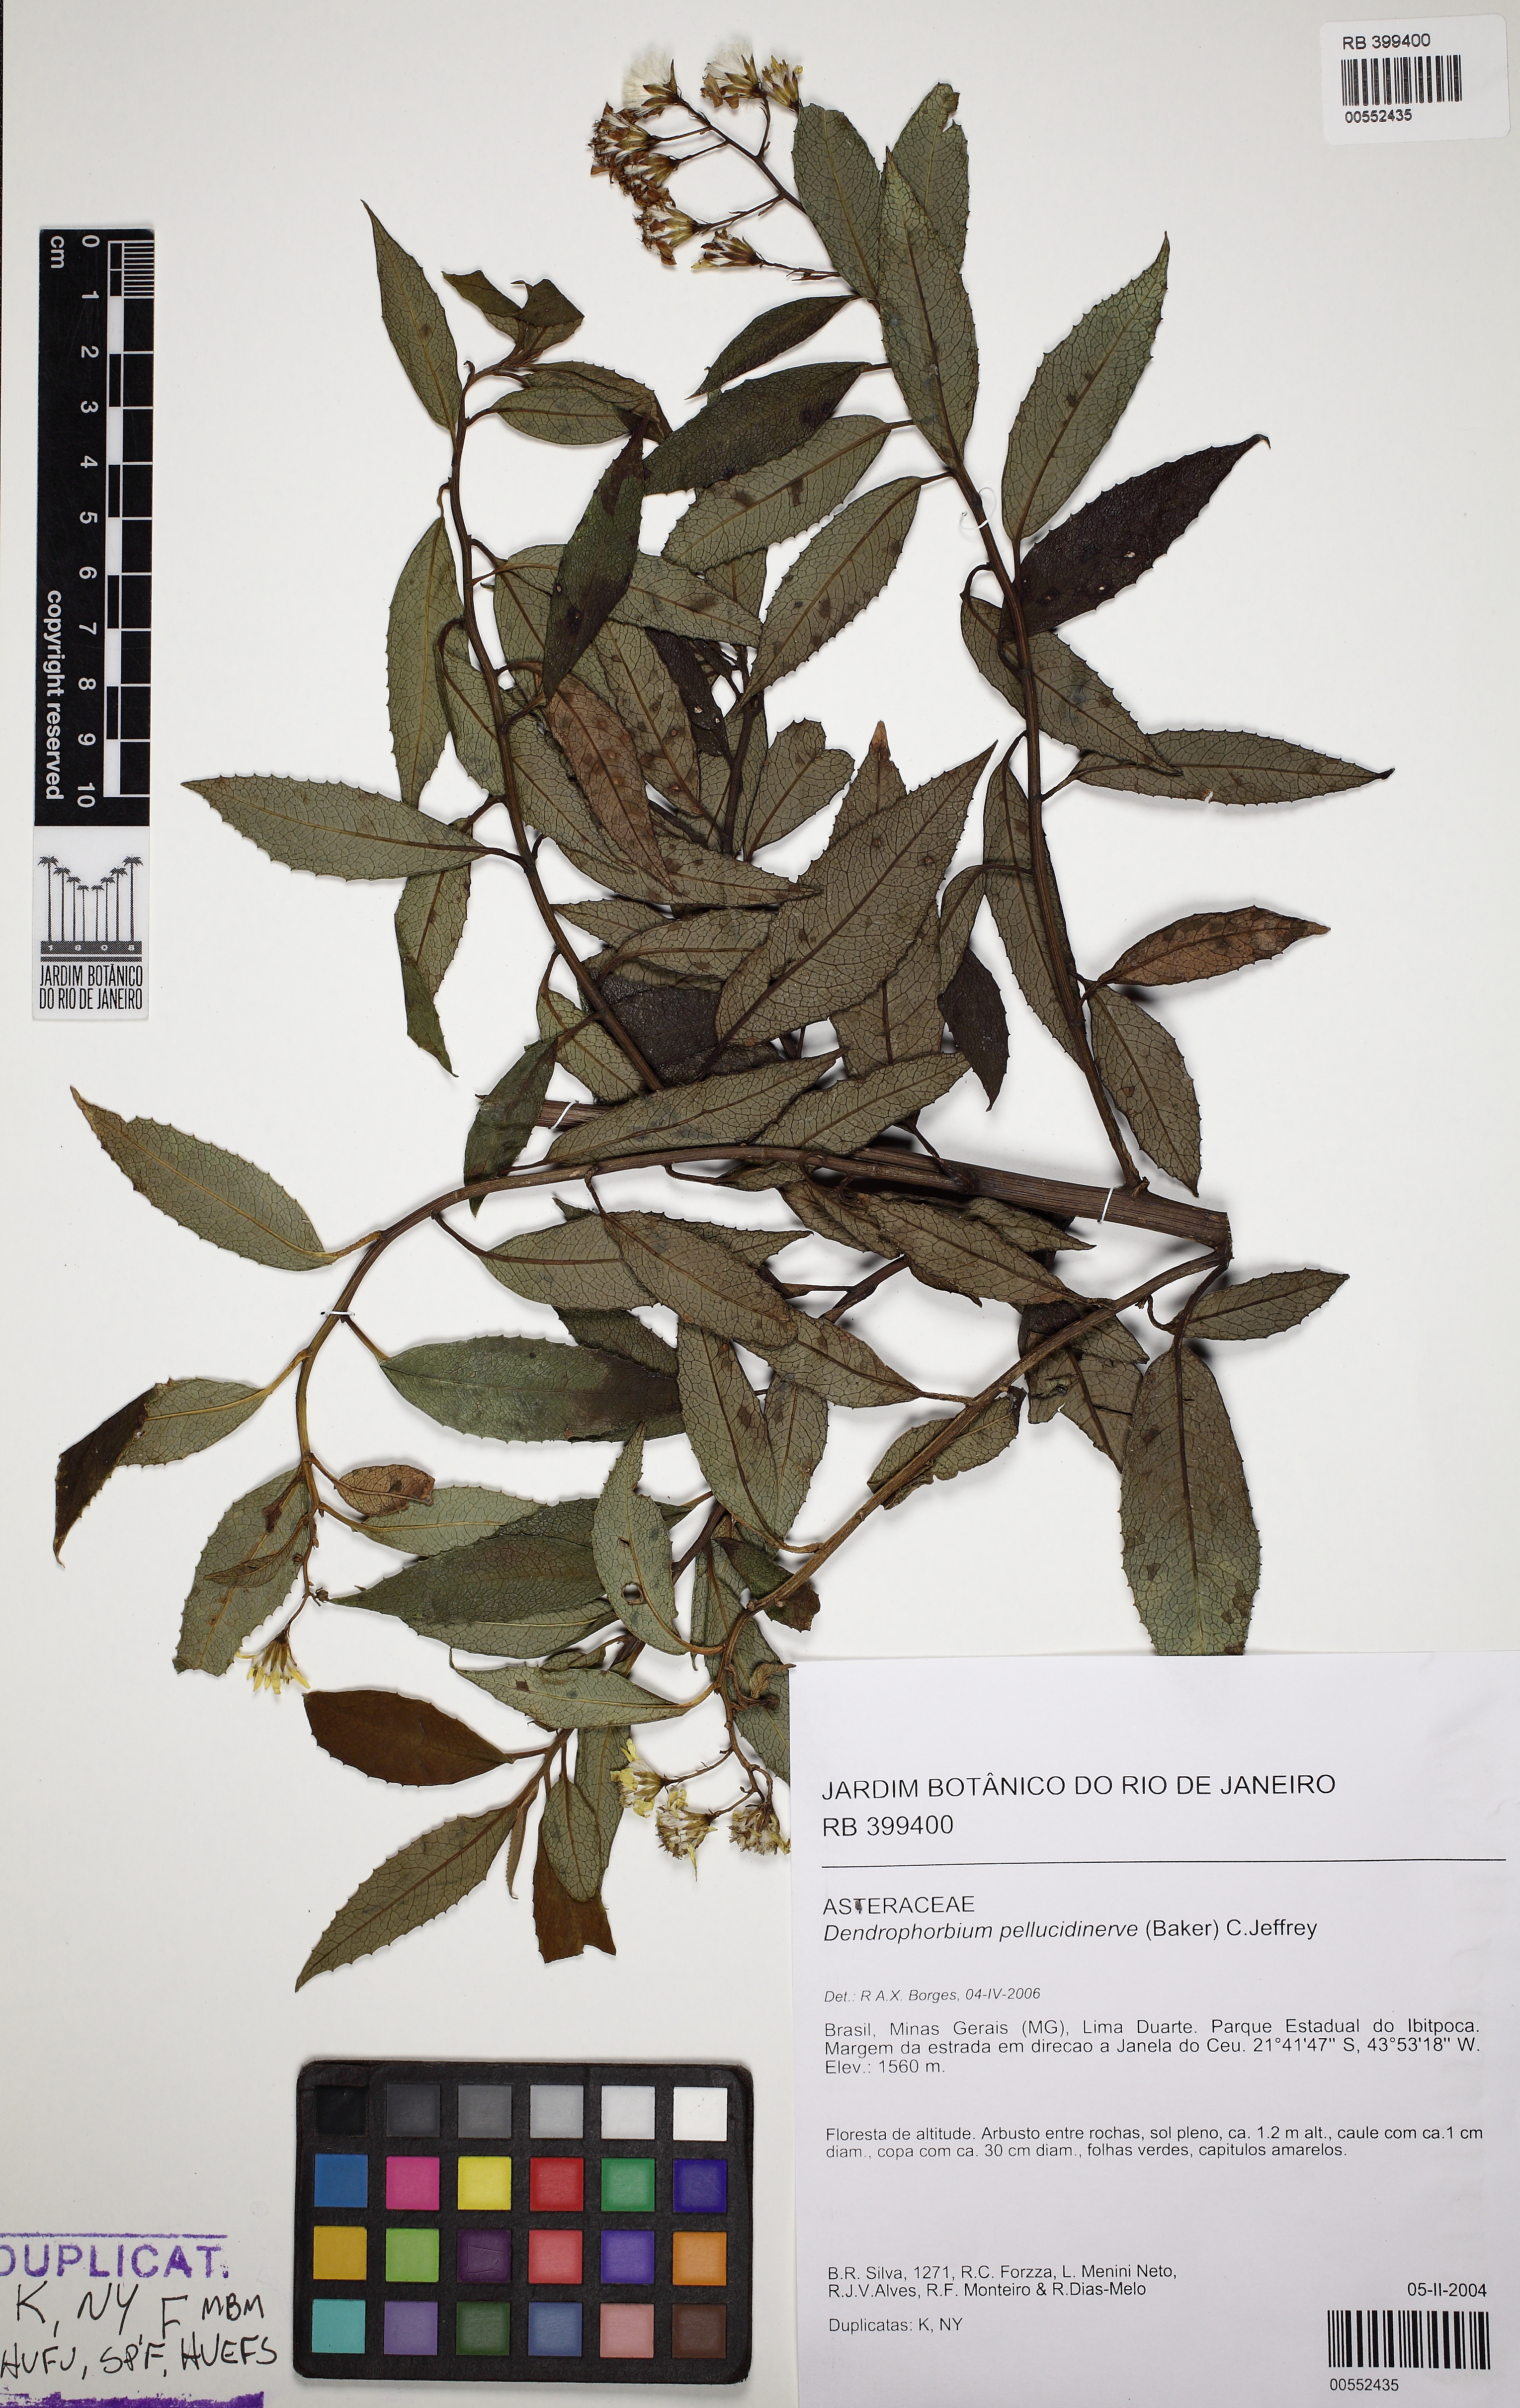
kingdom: Plantae
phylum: Tracheophyta
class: Magnoliopsida
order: Asterales
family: Asteraceae
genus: Dendrophorbium
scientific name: Dendrophorbium pellucidinerve
